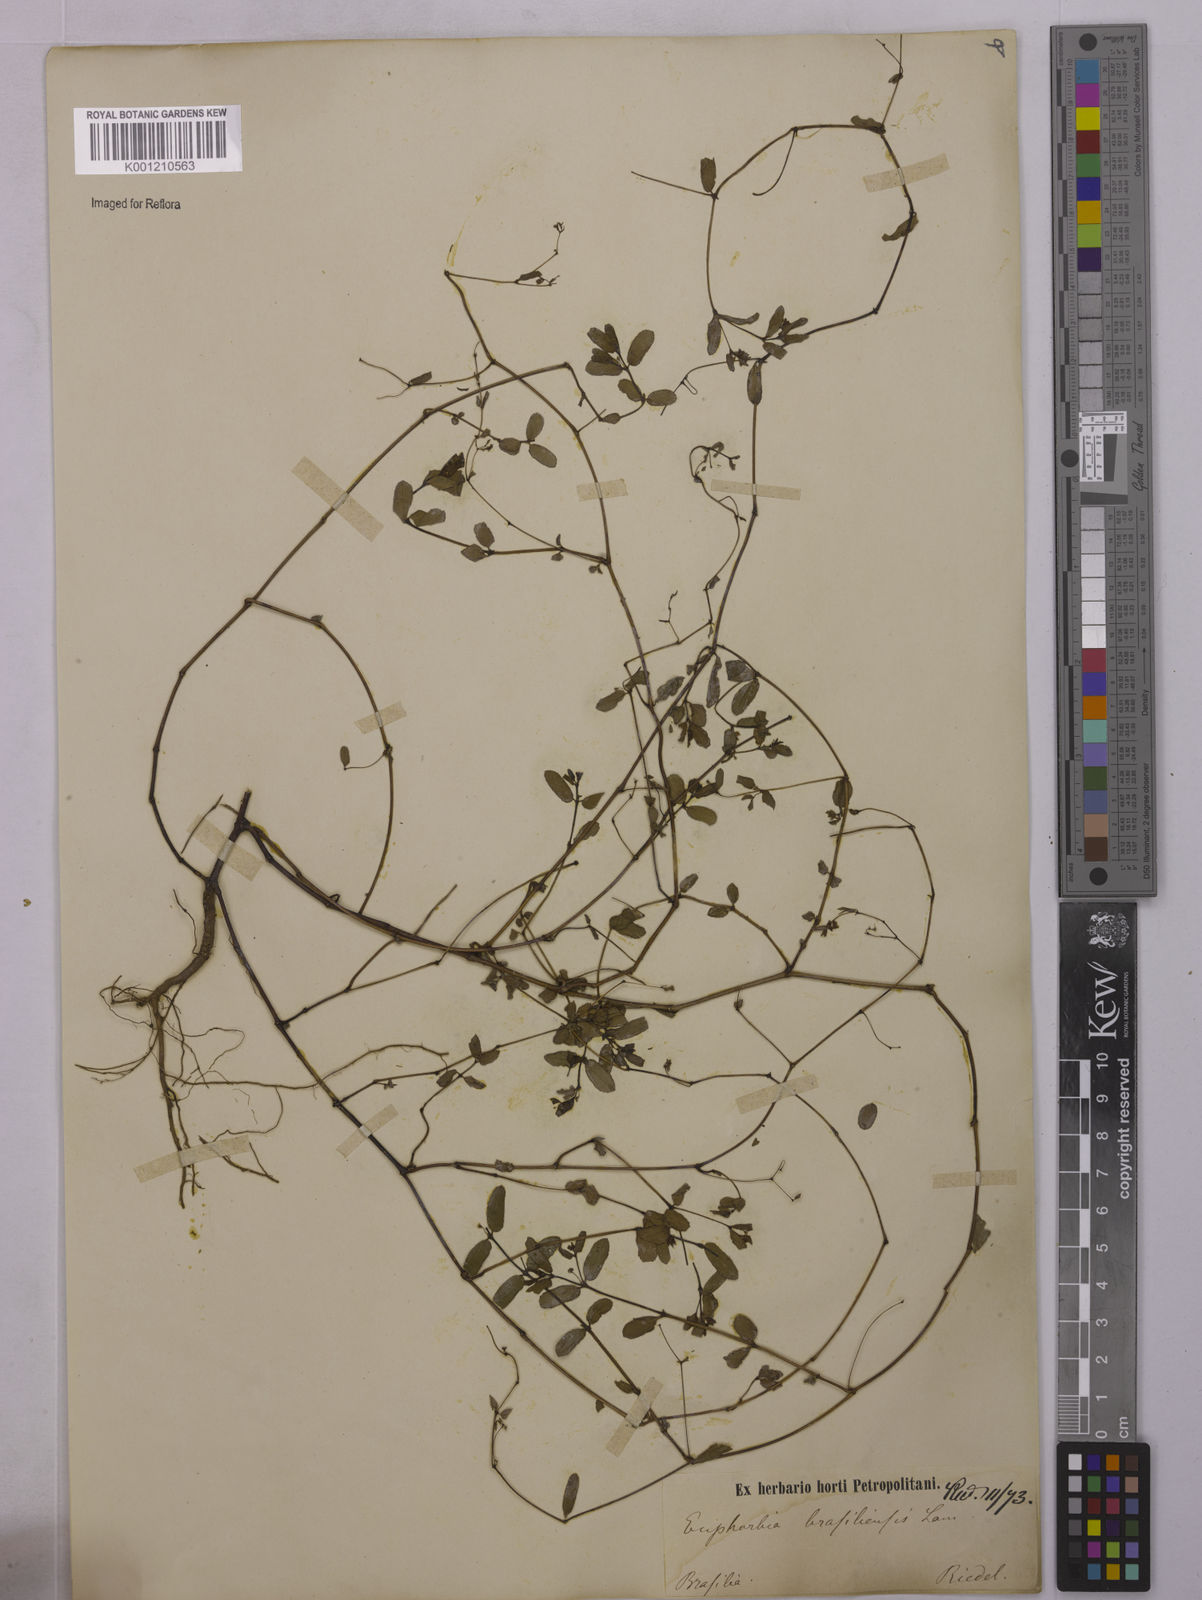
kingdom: Plantae
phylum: Tracheophyta
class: Magnoliopsida
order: Malpighiales
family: Euphorbiaceae
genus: Euphorbia
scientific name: Euphorbia hyssopifolia
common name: Hyssopleaf sandmat
